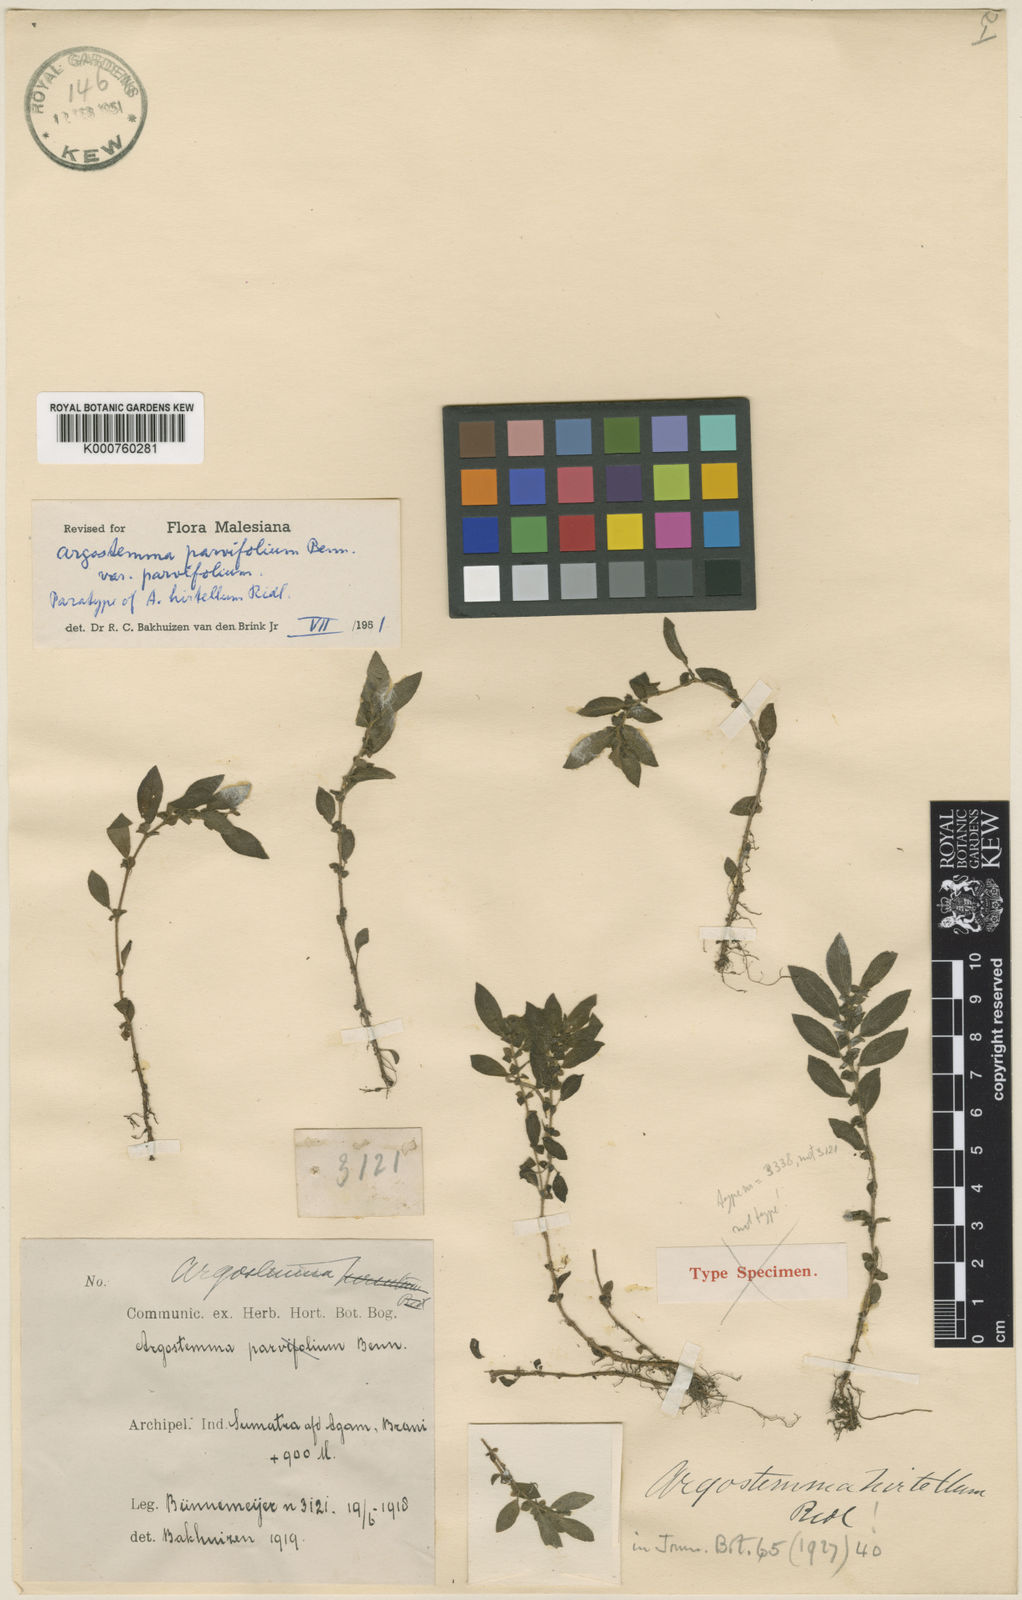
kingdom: Plantae
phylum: Tracheophyta
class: Magnoliopsida
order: Gentianales
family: Rubiaceae
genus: Argostemma
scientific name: Argostemma parvifolium
